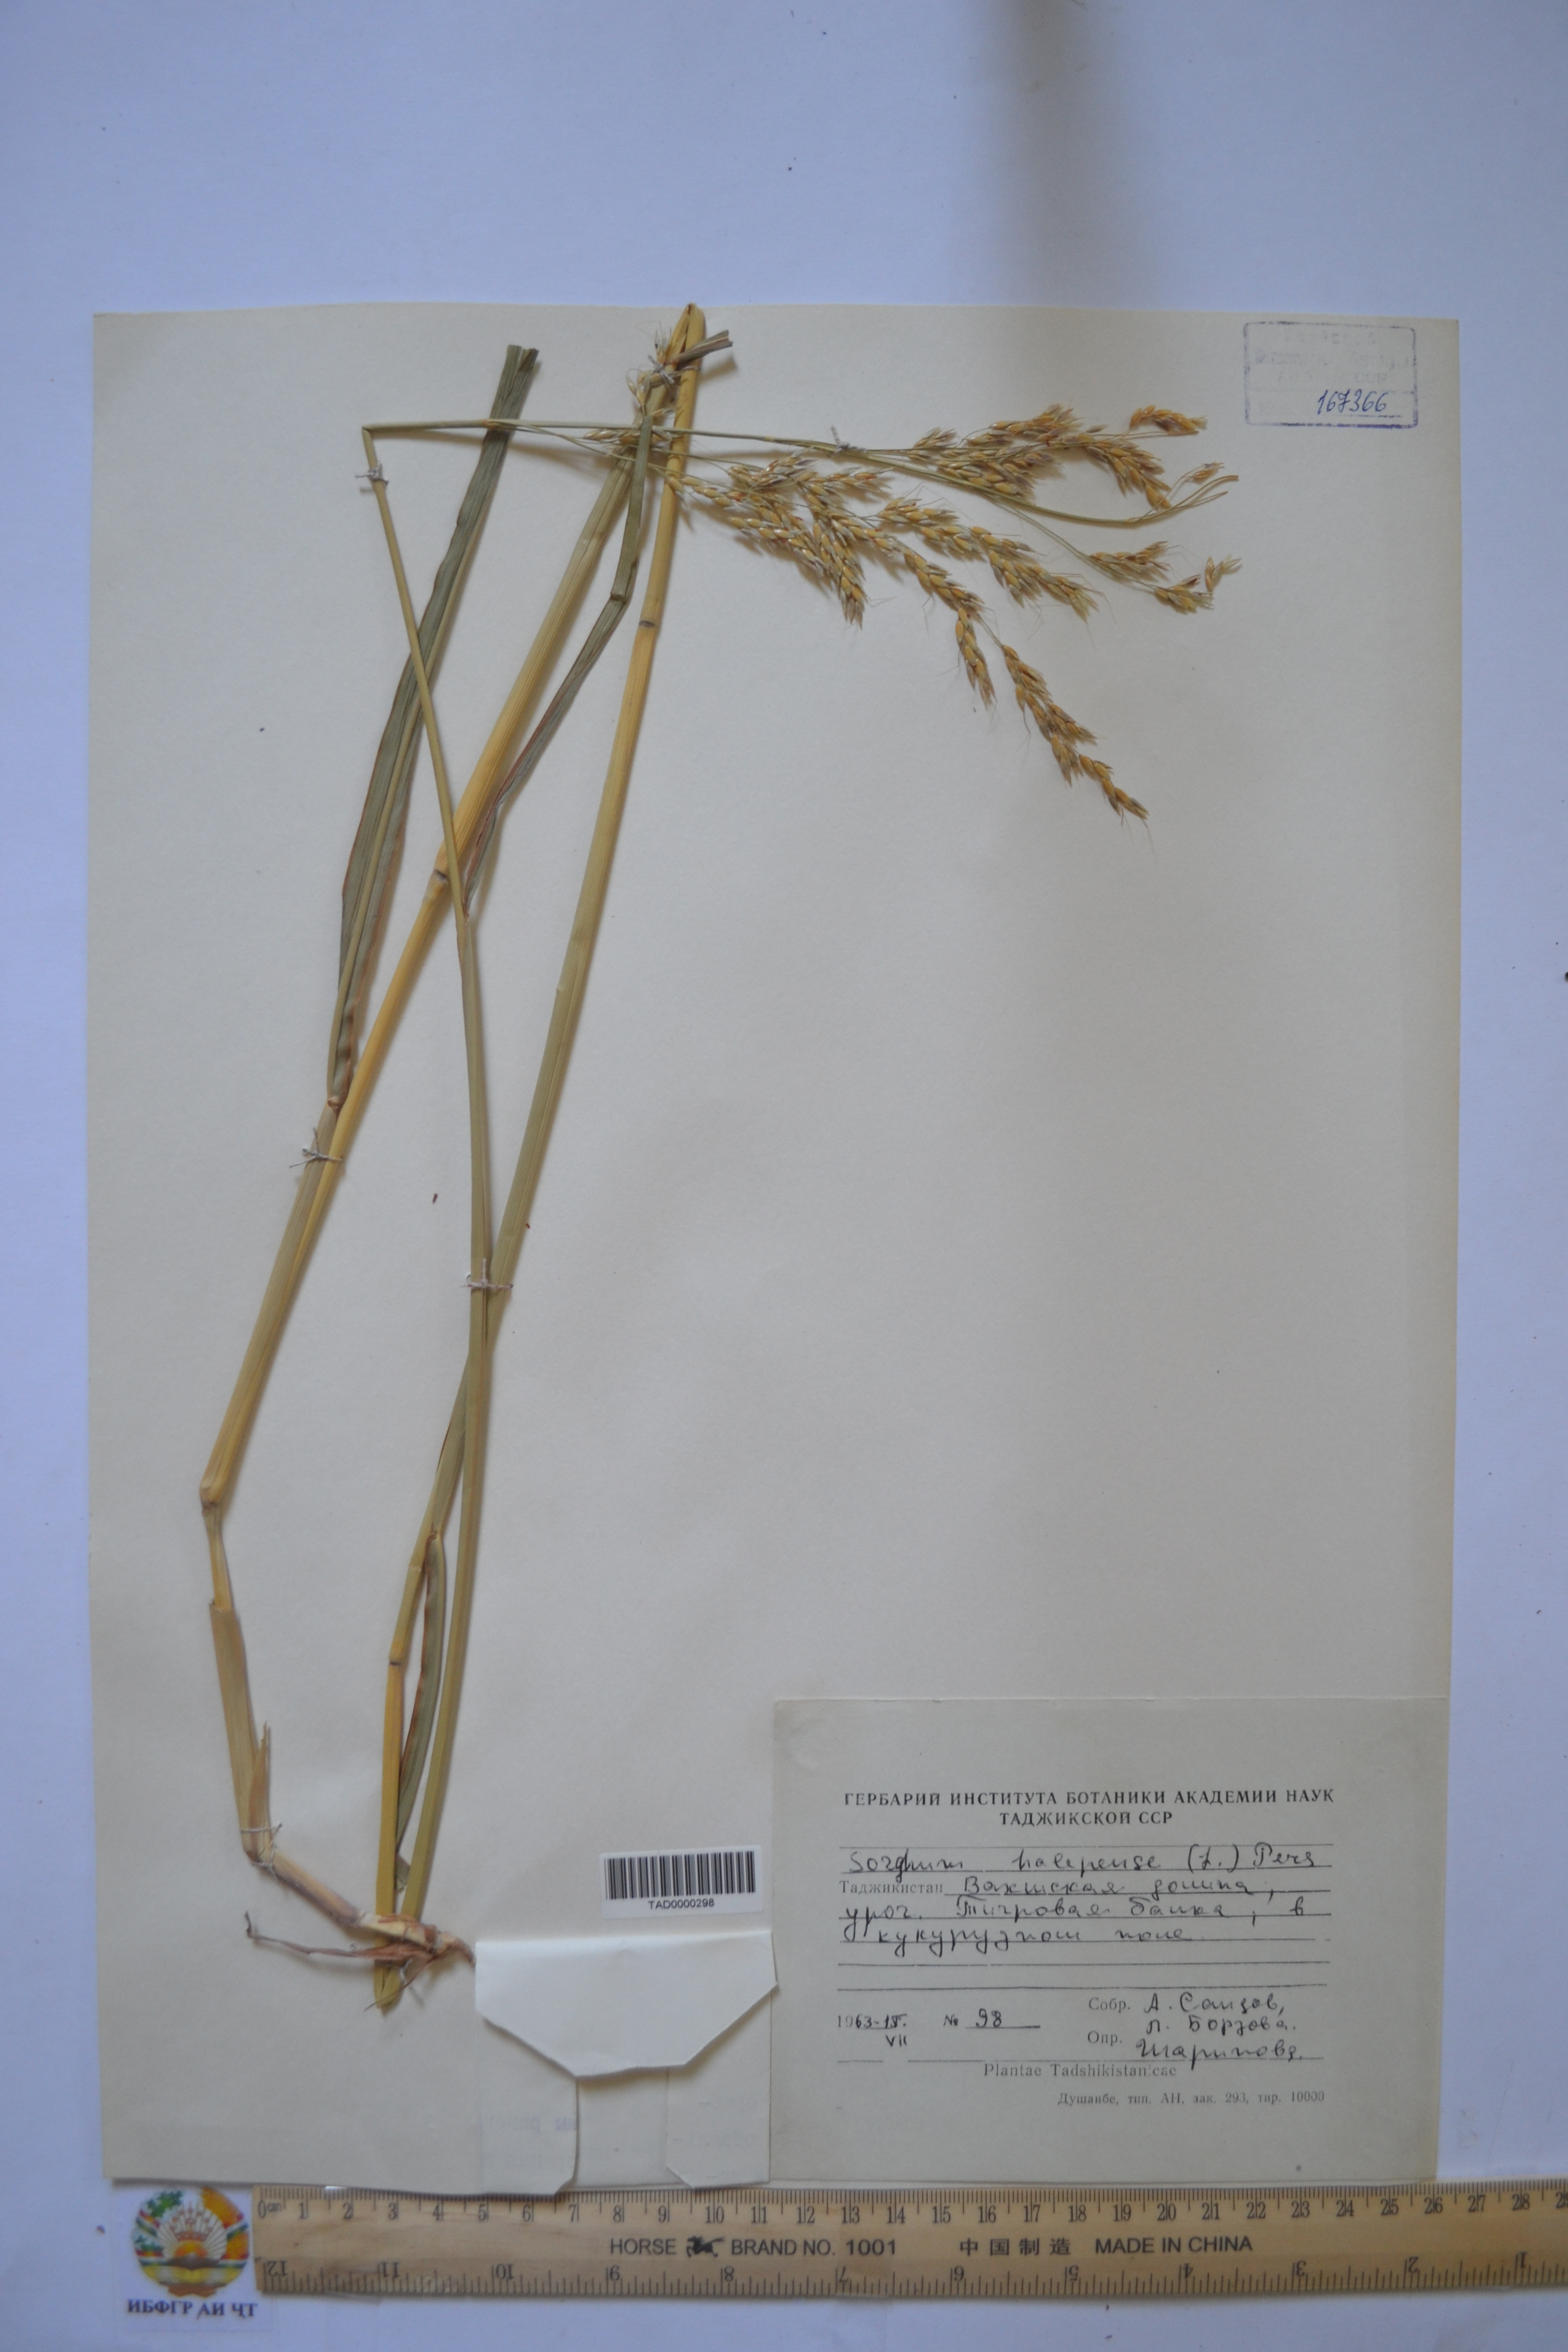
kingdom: Plantae
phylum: Tracheophyta
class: Liliopsida
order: Poales
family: Poaceae
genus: Sorghum
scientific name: Sorghum halepense
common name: Johnson-grass
